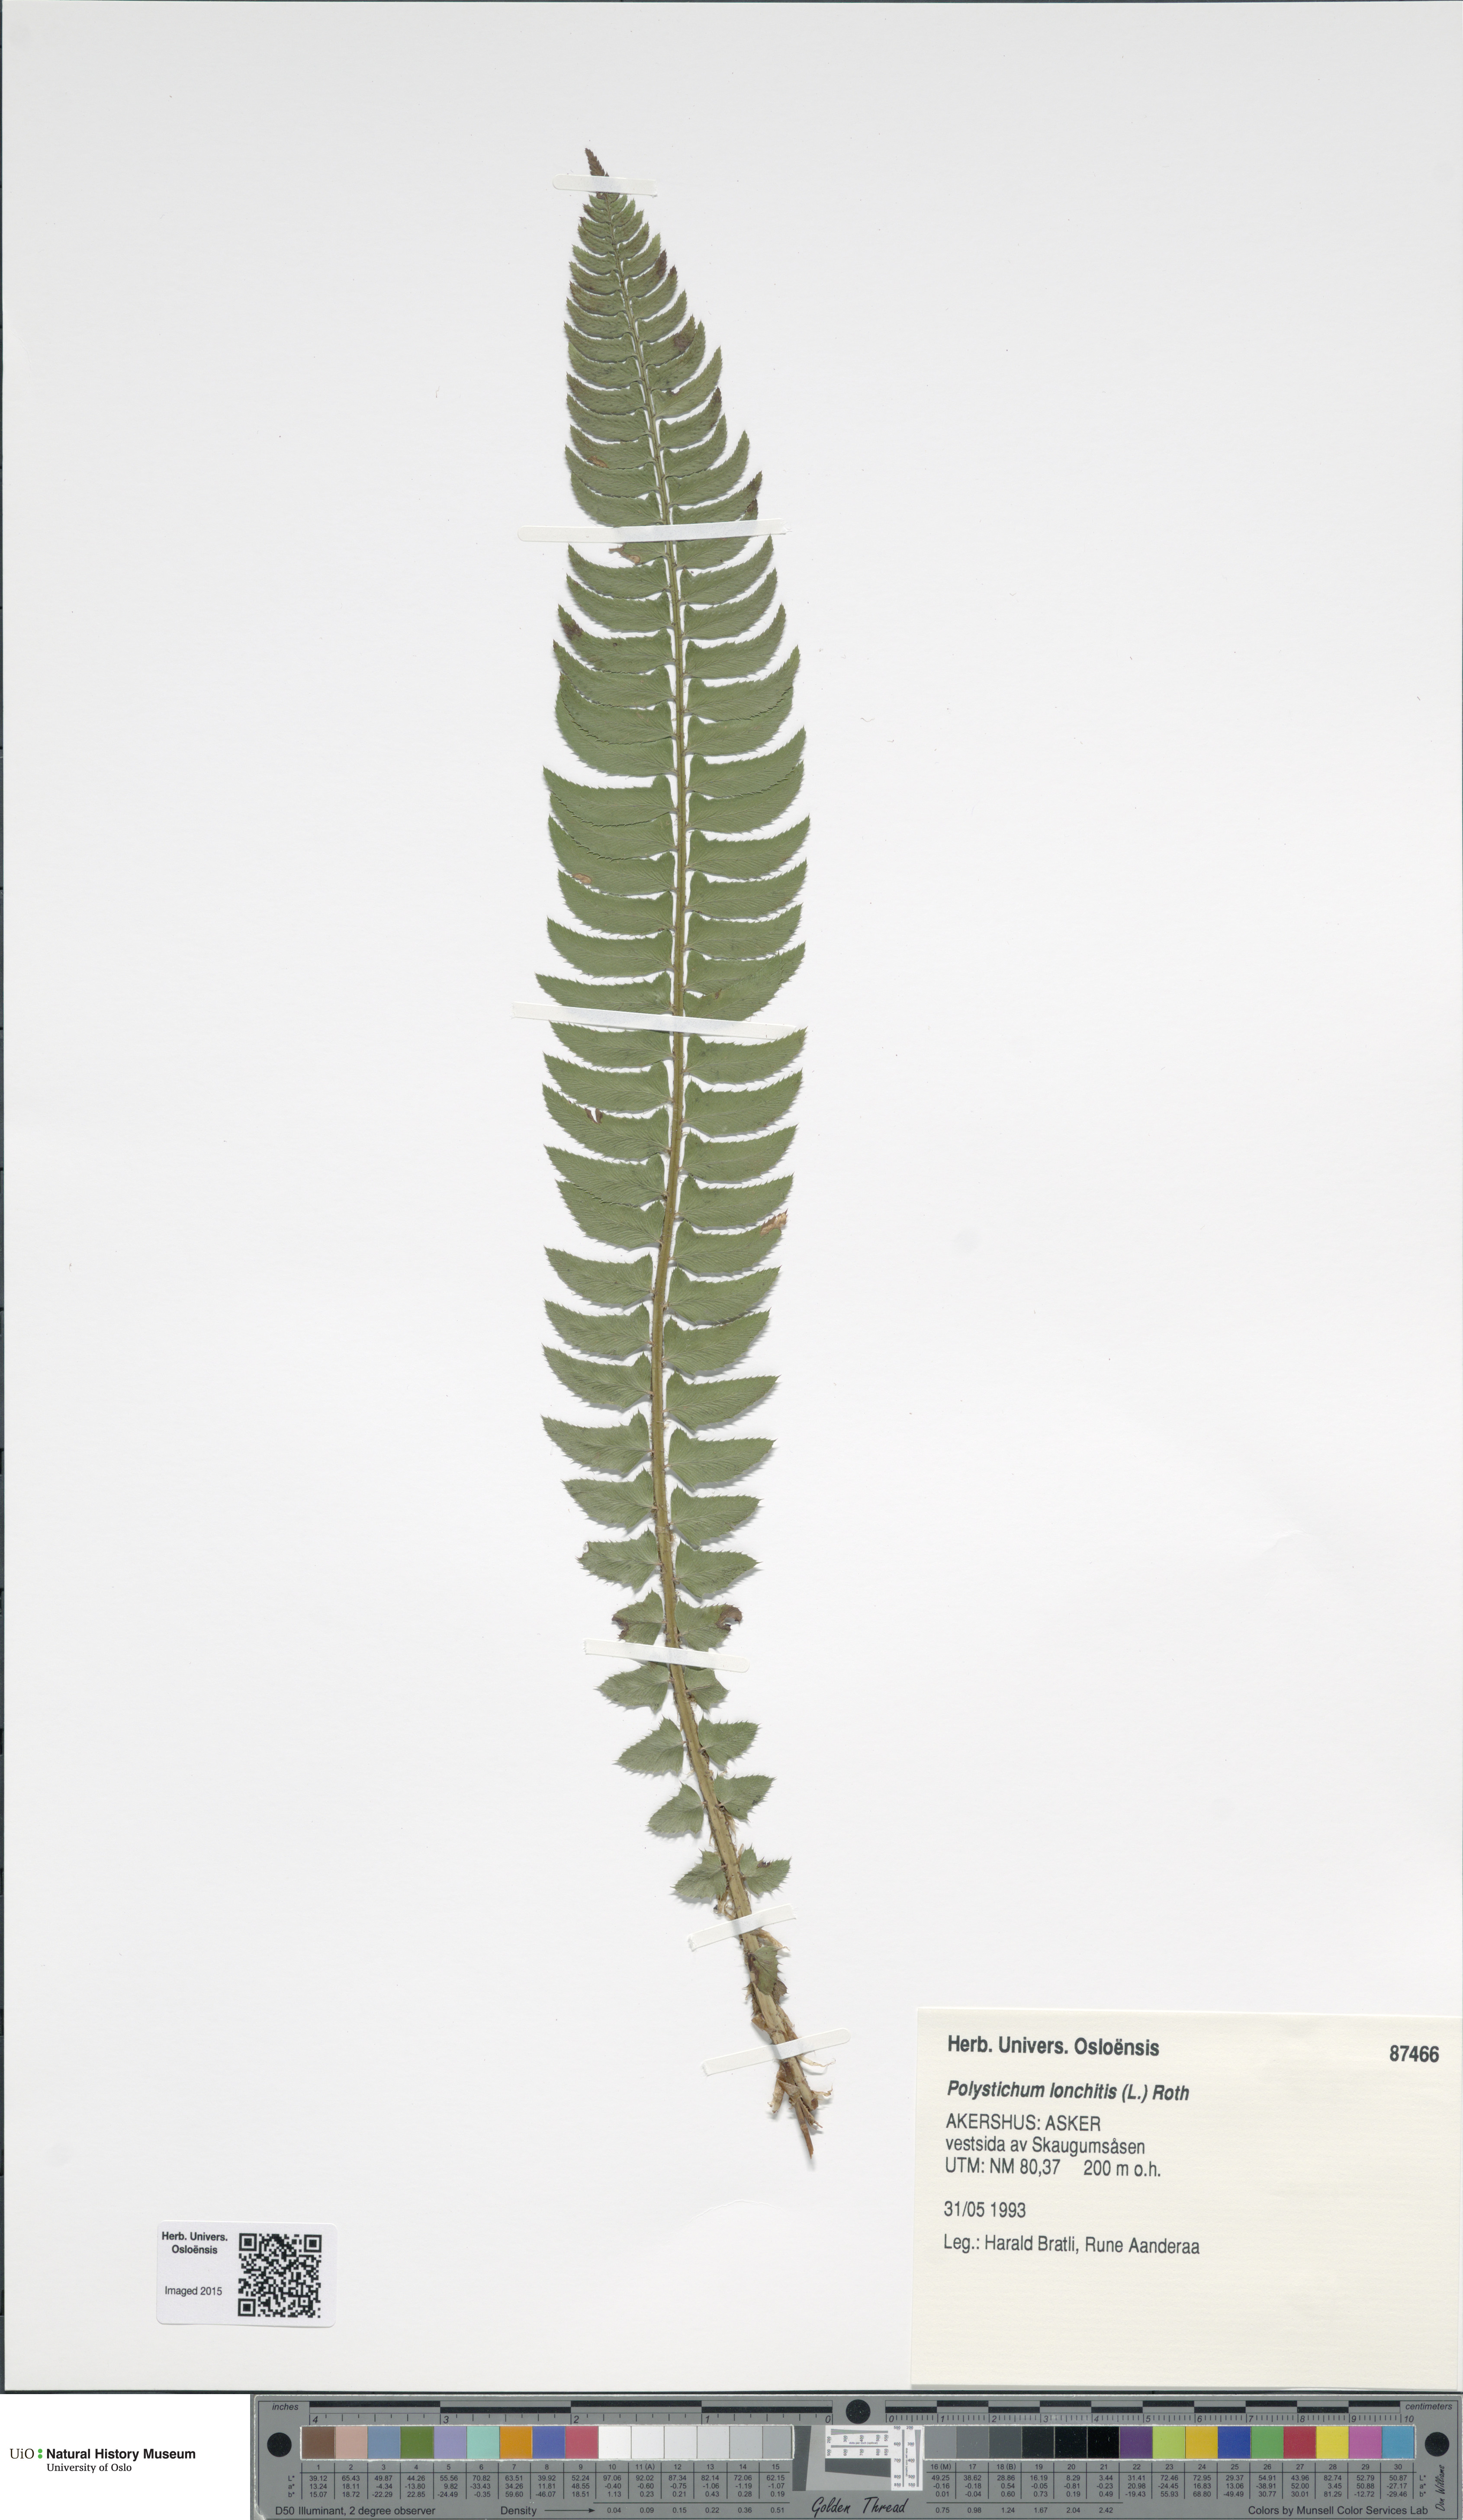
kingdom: Plantae
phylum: Tracheophyta
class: Polypodiopsida
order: Polypodiales
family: Dryopteridaceae
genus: Polystichum
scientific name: Polystichum lonchitis
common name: Holly fern
